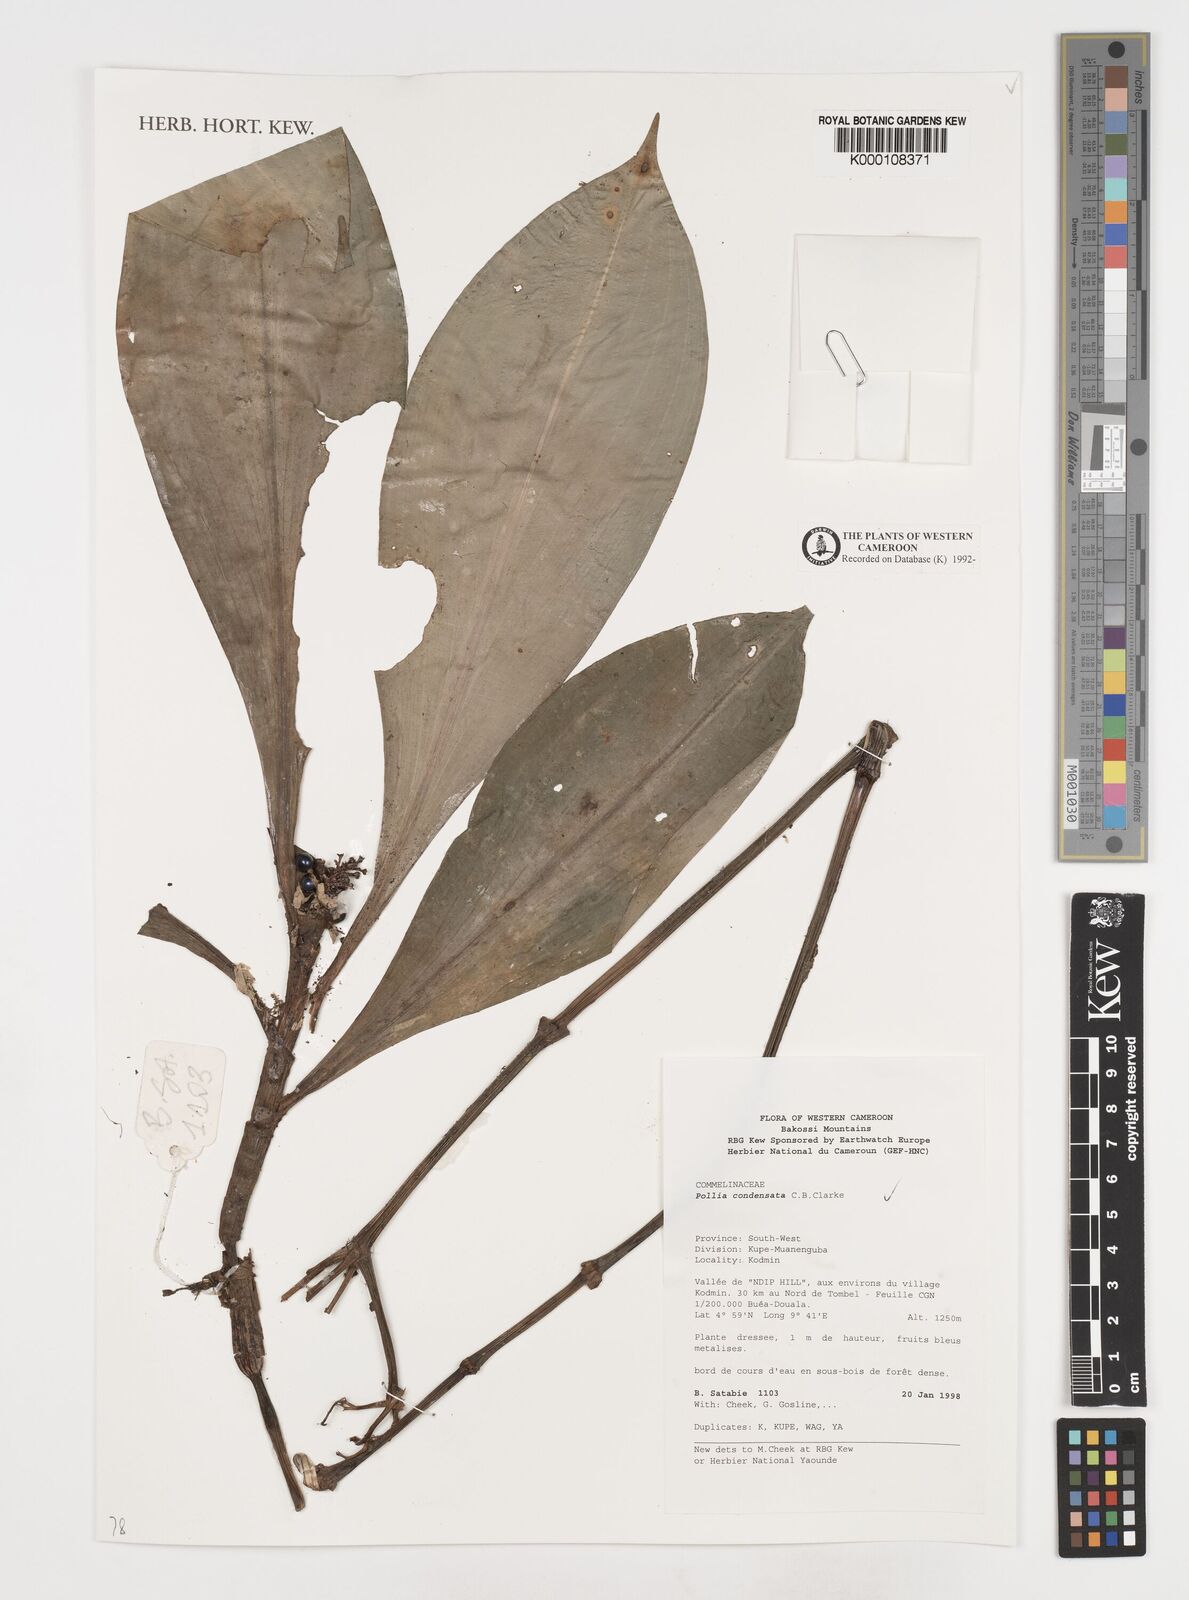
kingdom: Plantae
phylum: Tracheophyta
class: Liliopsida
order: Commelinales
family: Commelinaceae
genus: Pollia
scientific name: Pollia condensata
